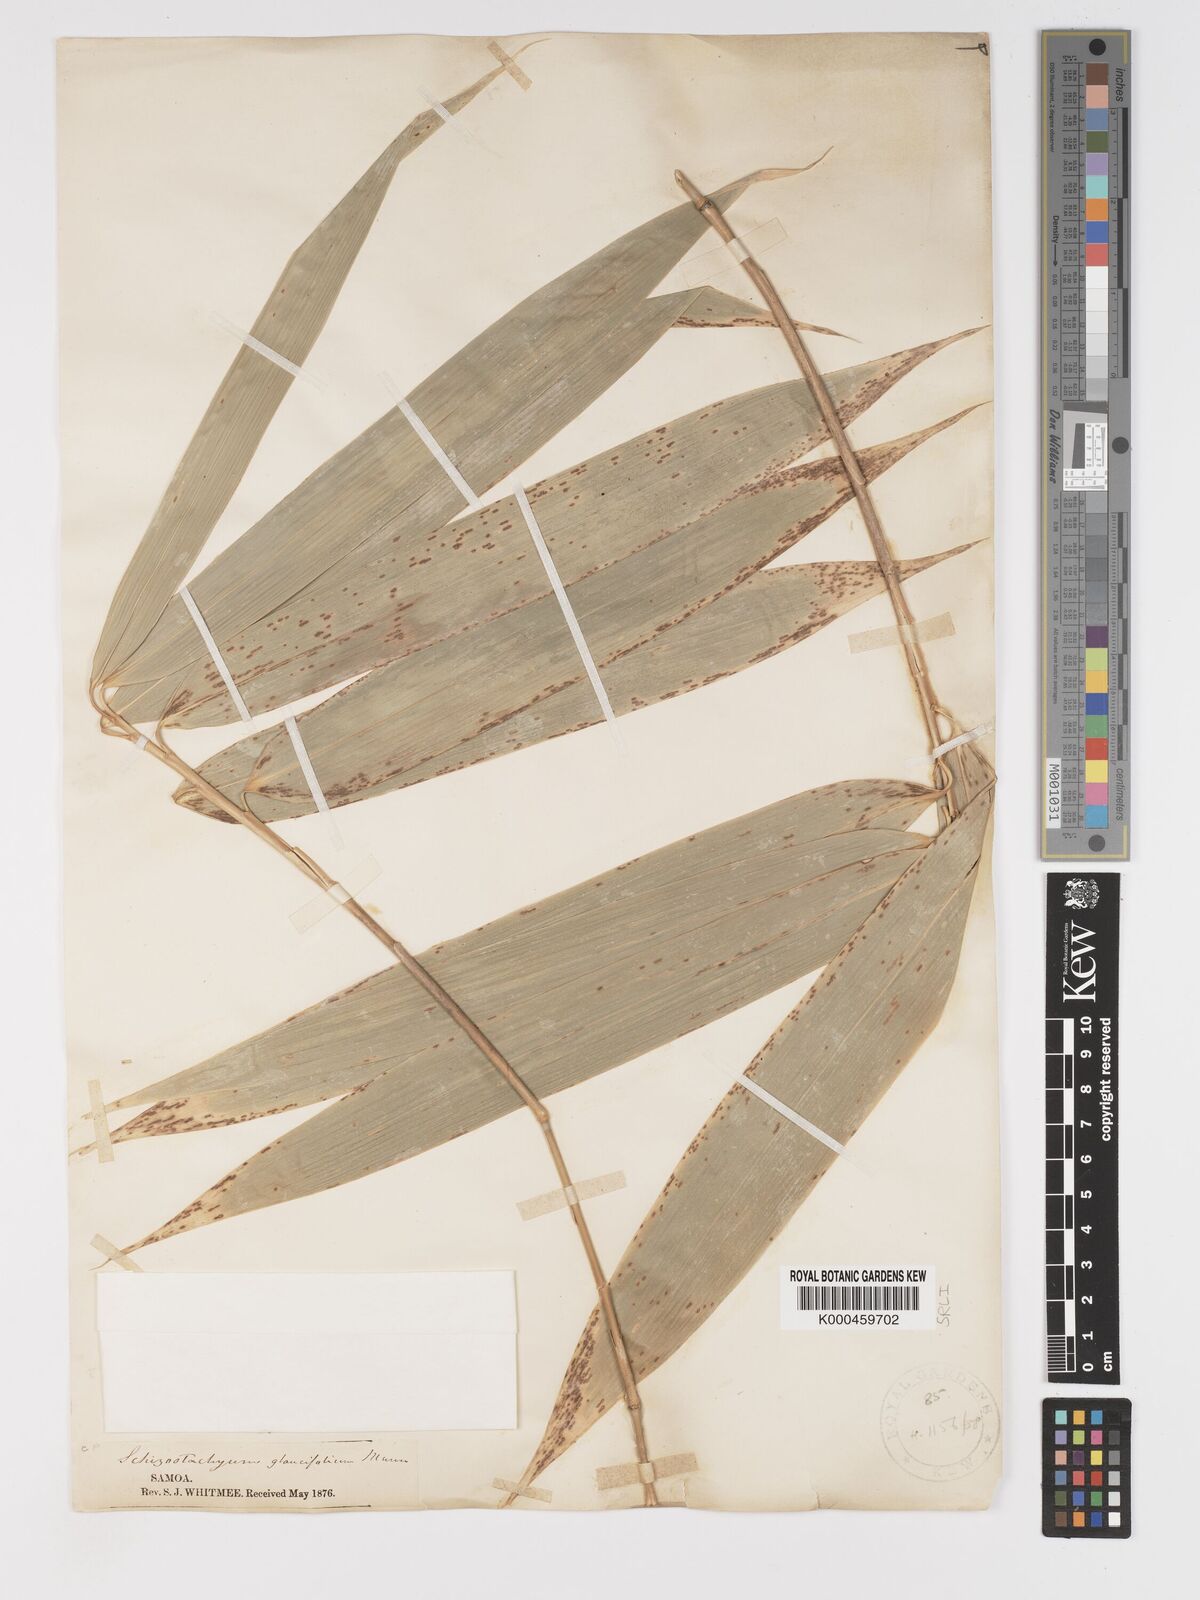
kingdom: Plantae
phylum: Tracheophyta
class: Liliopsida
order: Poales
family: Poaceae
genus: Schizostachyum
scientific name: Schizostachyum glaucifolium
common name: Polynesian 'ohe
